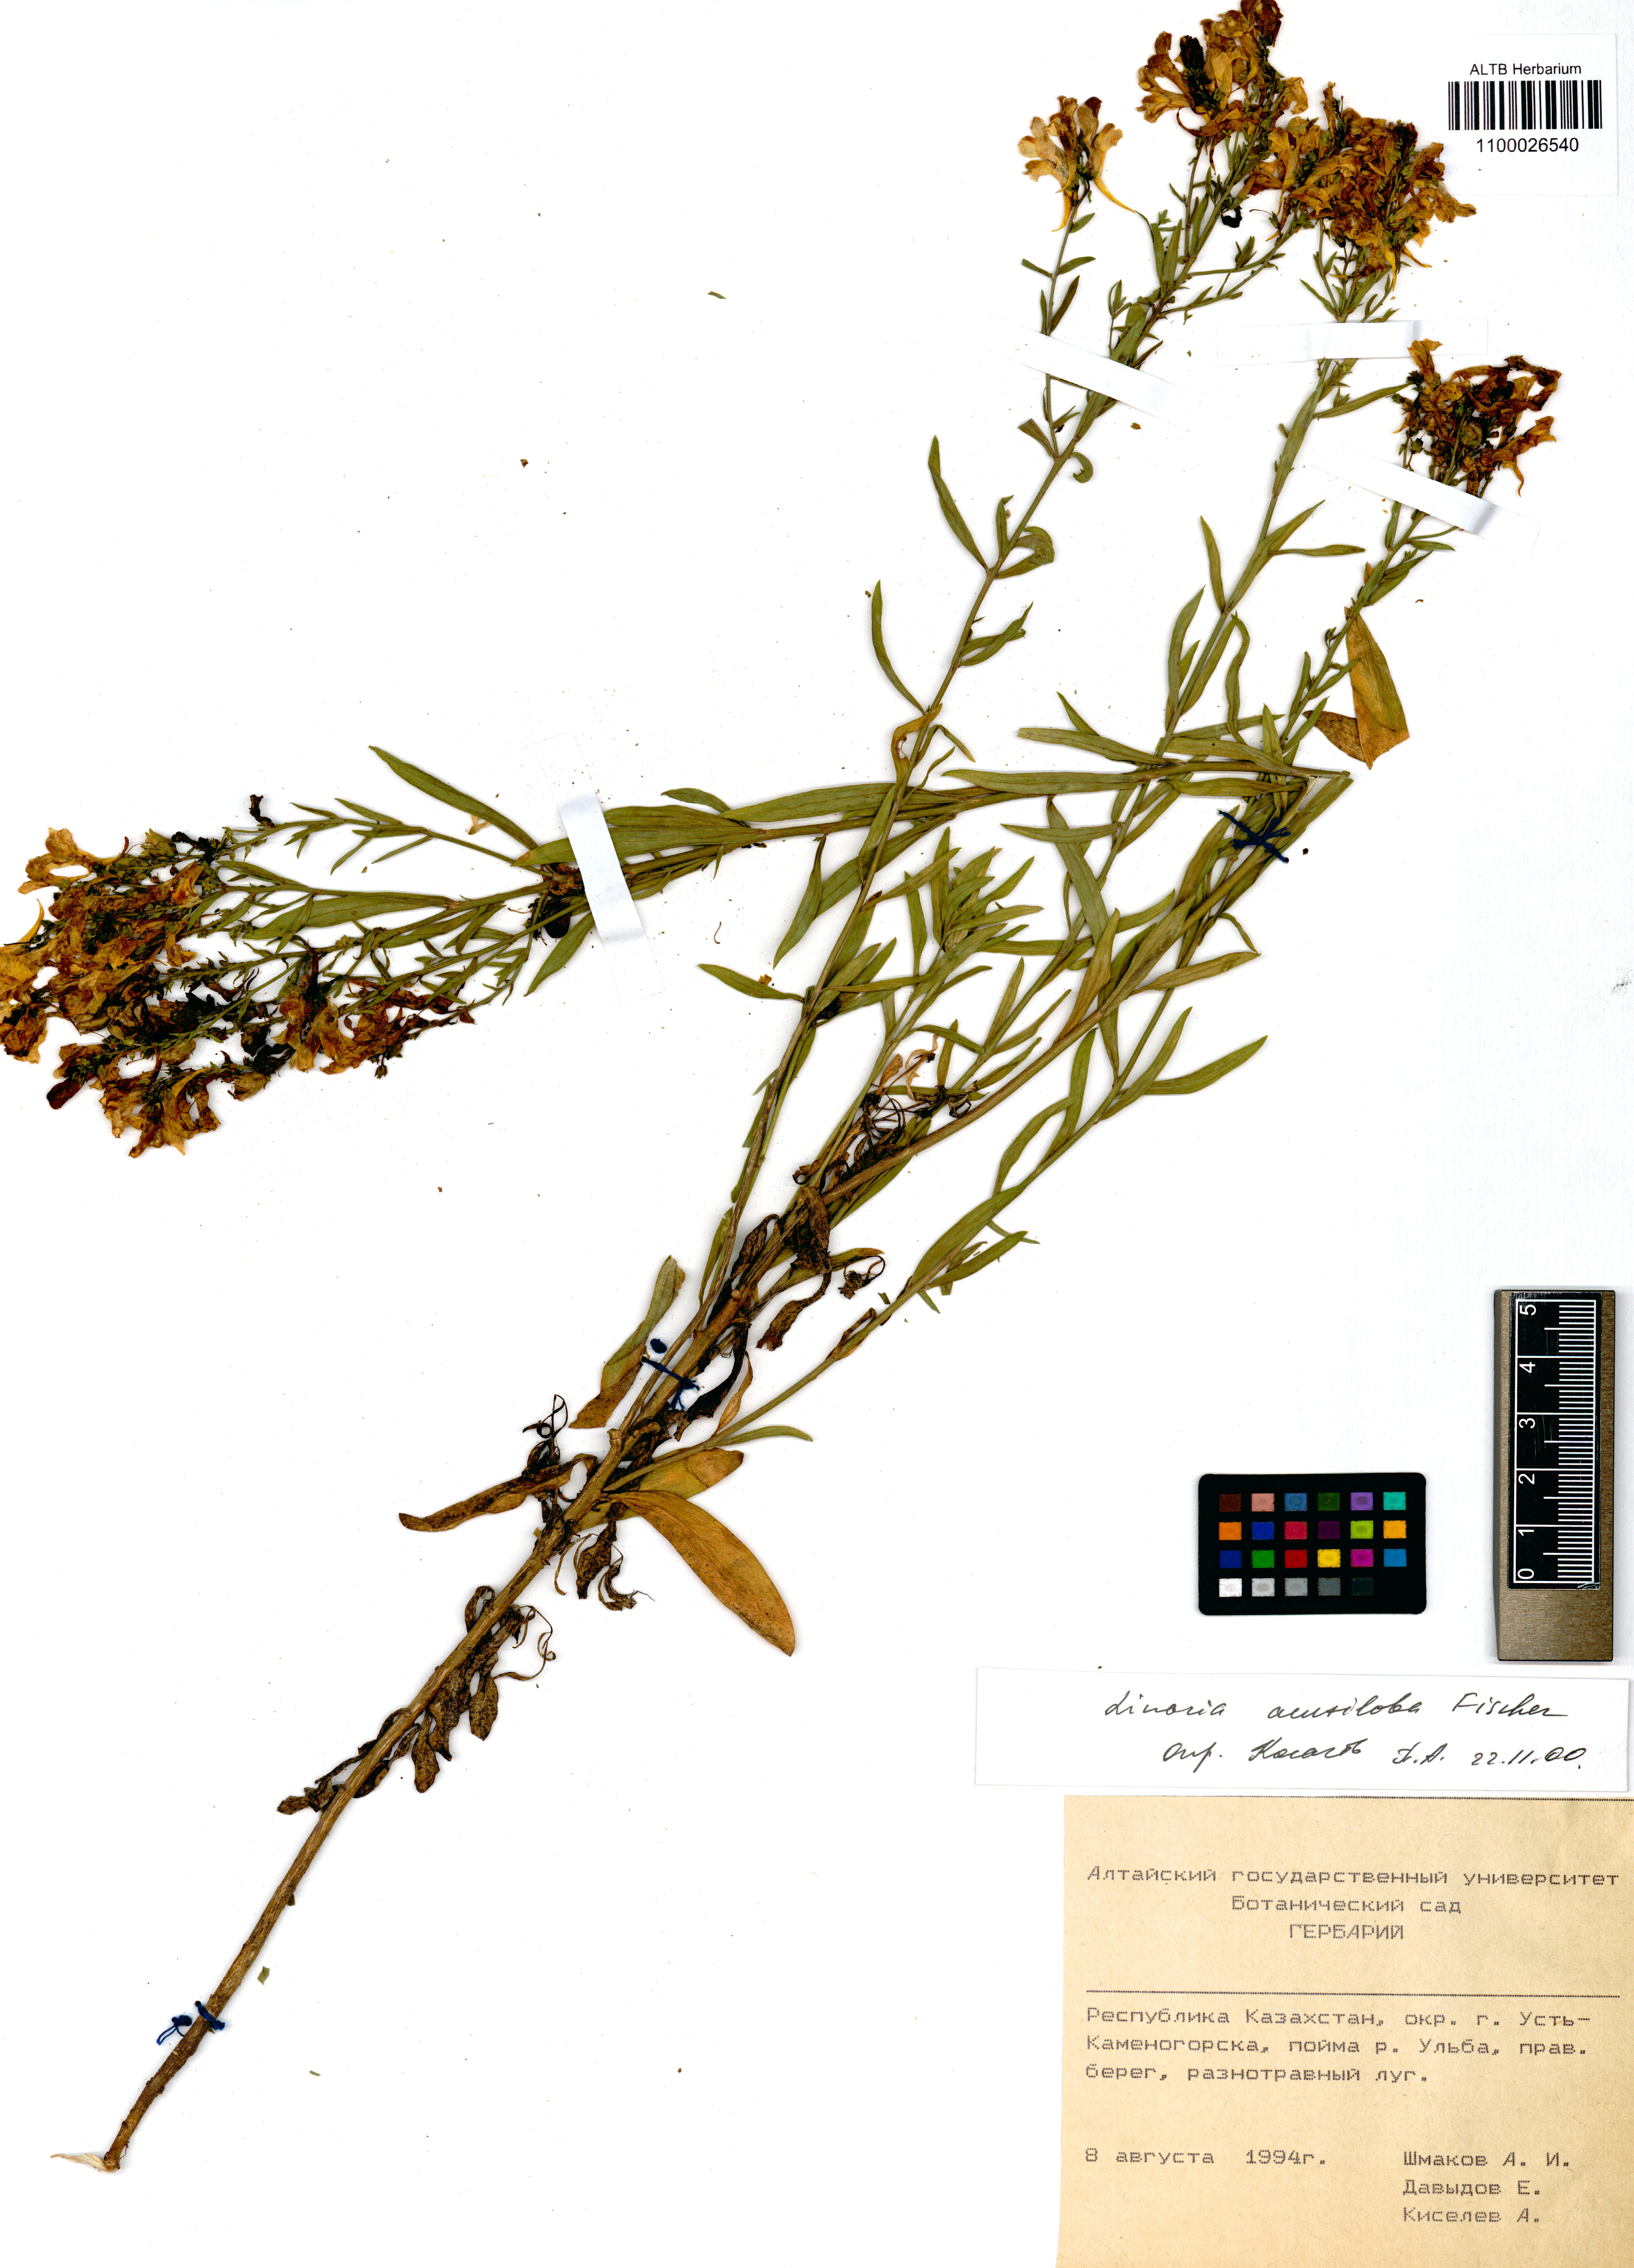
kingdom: Plantae
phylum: Tracheophyta
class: Magnoliopsida
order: Lamiales
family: Plantaginaceae
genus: Linaria
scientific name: Linaria acutiloba
